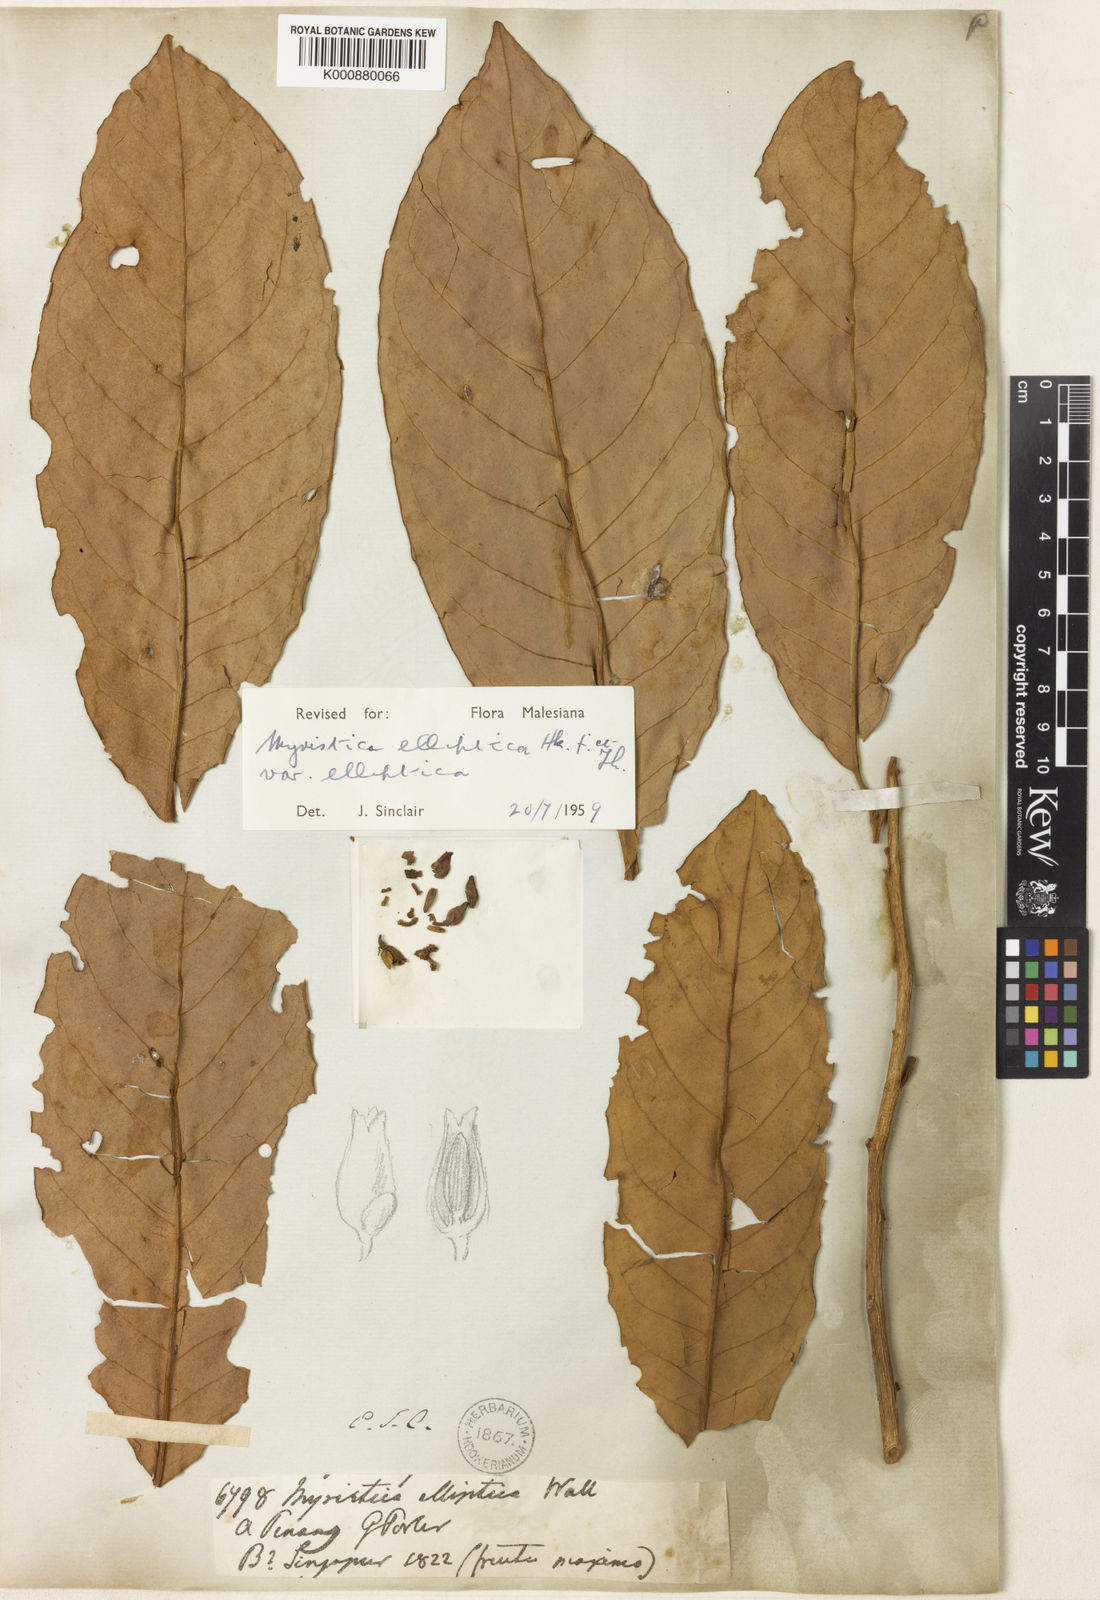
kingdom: Plantae
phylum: Tracheophyta
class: Magnoliopsida
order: Magnoliales
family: Myristicaceae
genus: Myristica
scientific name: Myristica elliptica
